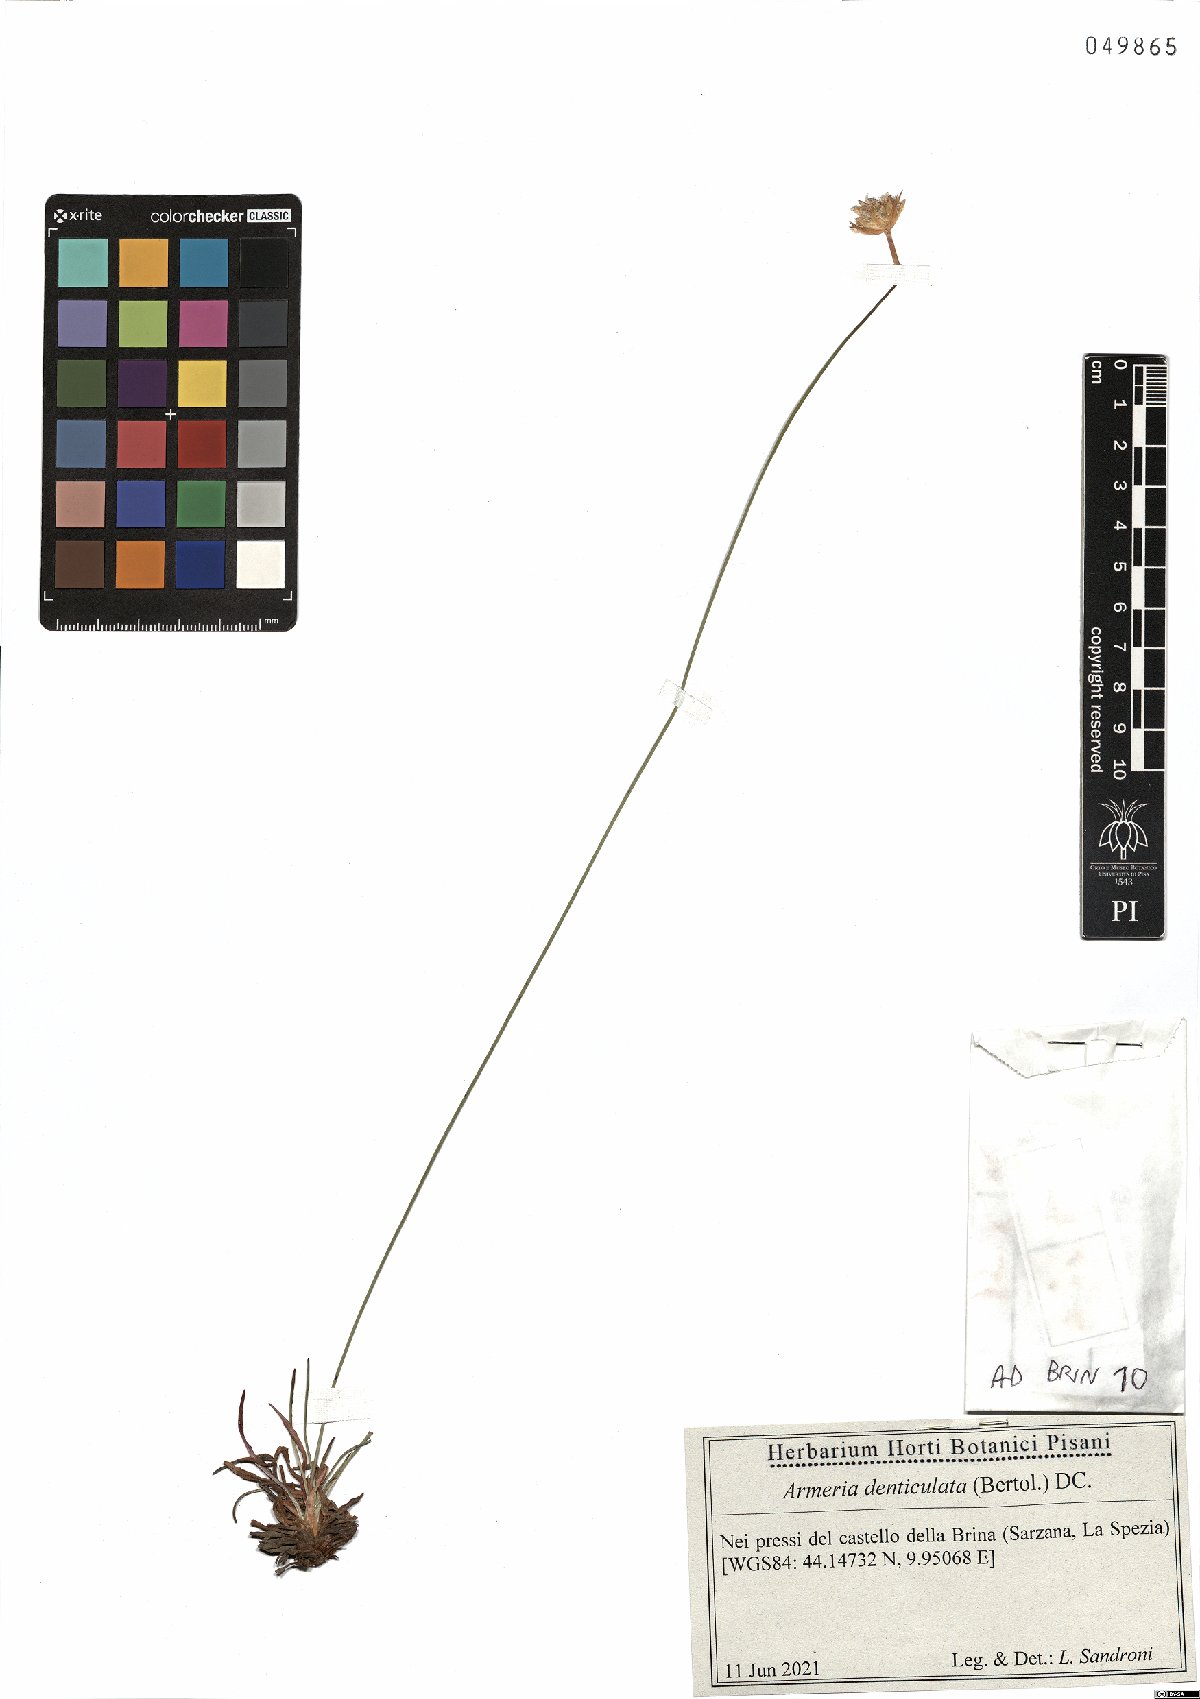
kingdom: Plantae
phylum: Tracheophyta
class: Magnoliopsida
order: Caryophyllales
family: Plumbaginaceae
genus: Armeria
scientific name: Armeria denticulata
